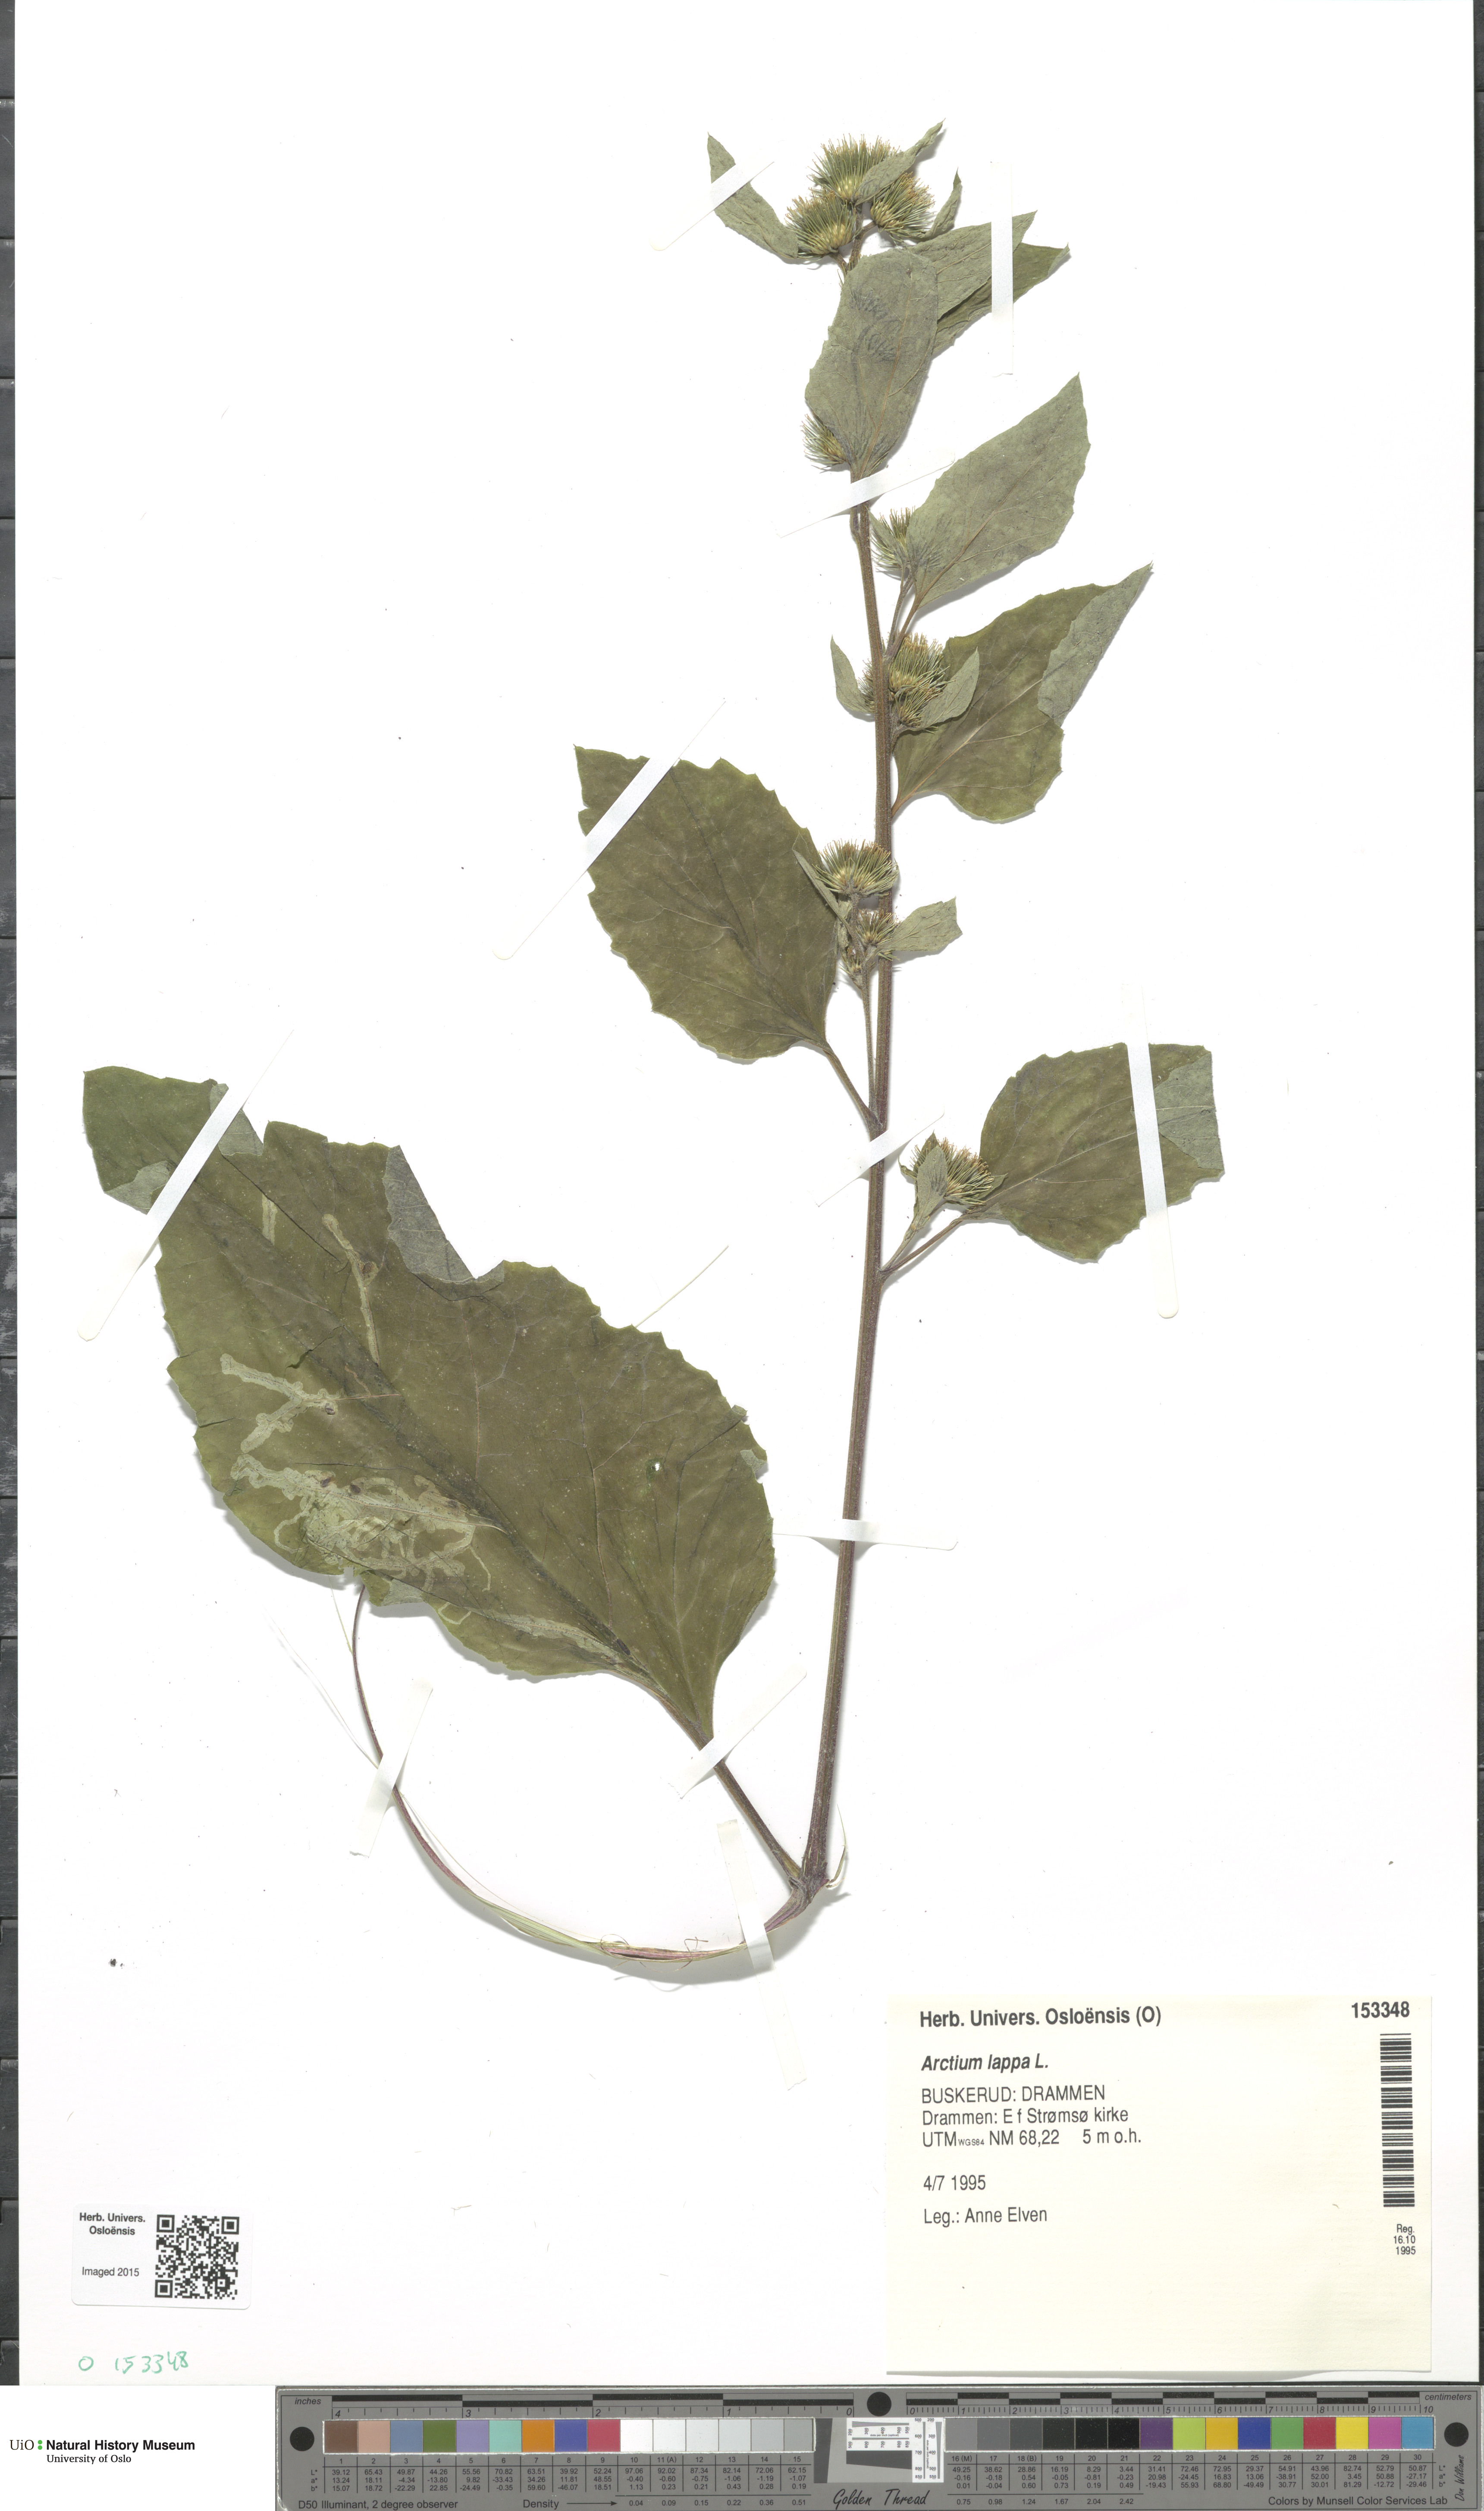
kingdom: Plantae
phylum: Tracheophyta
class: Magnoliopsida
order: Asterales
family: Asteraceae
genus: Arctium
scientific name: Arctium lappa
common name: Greater burdock
